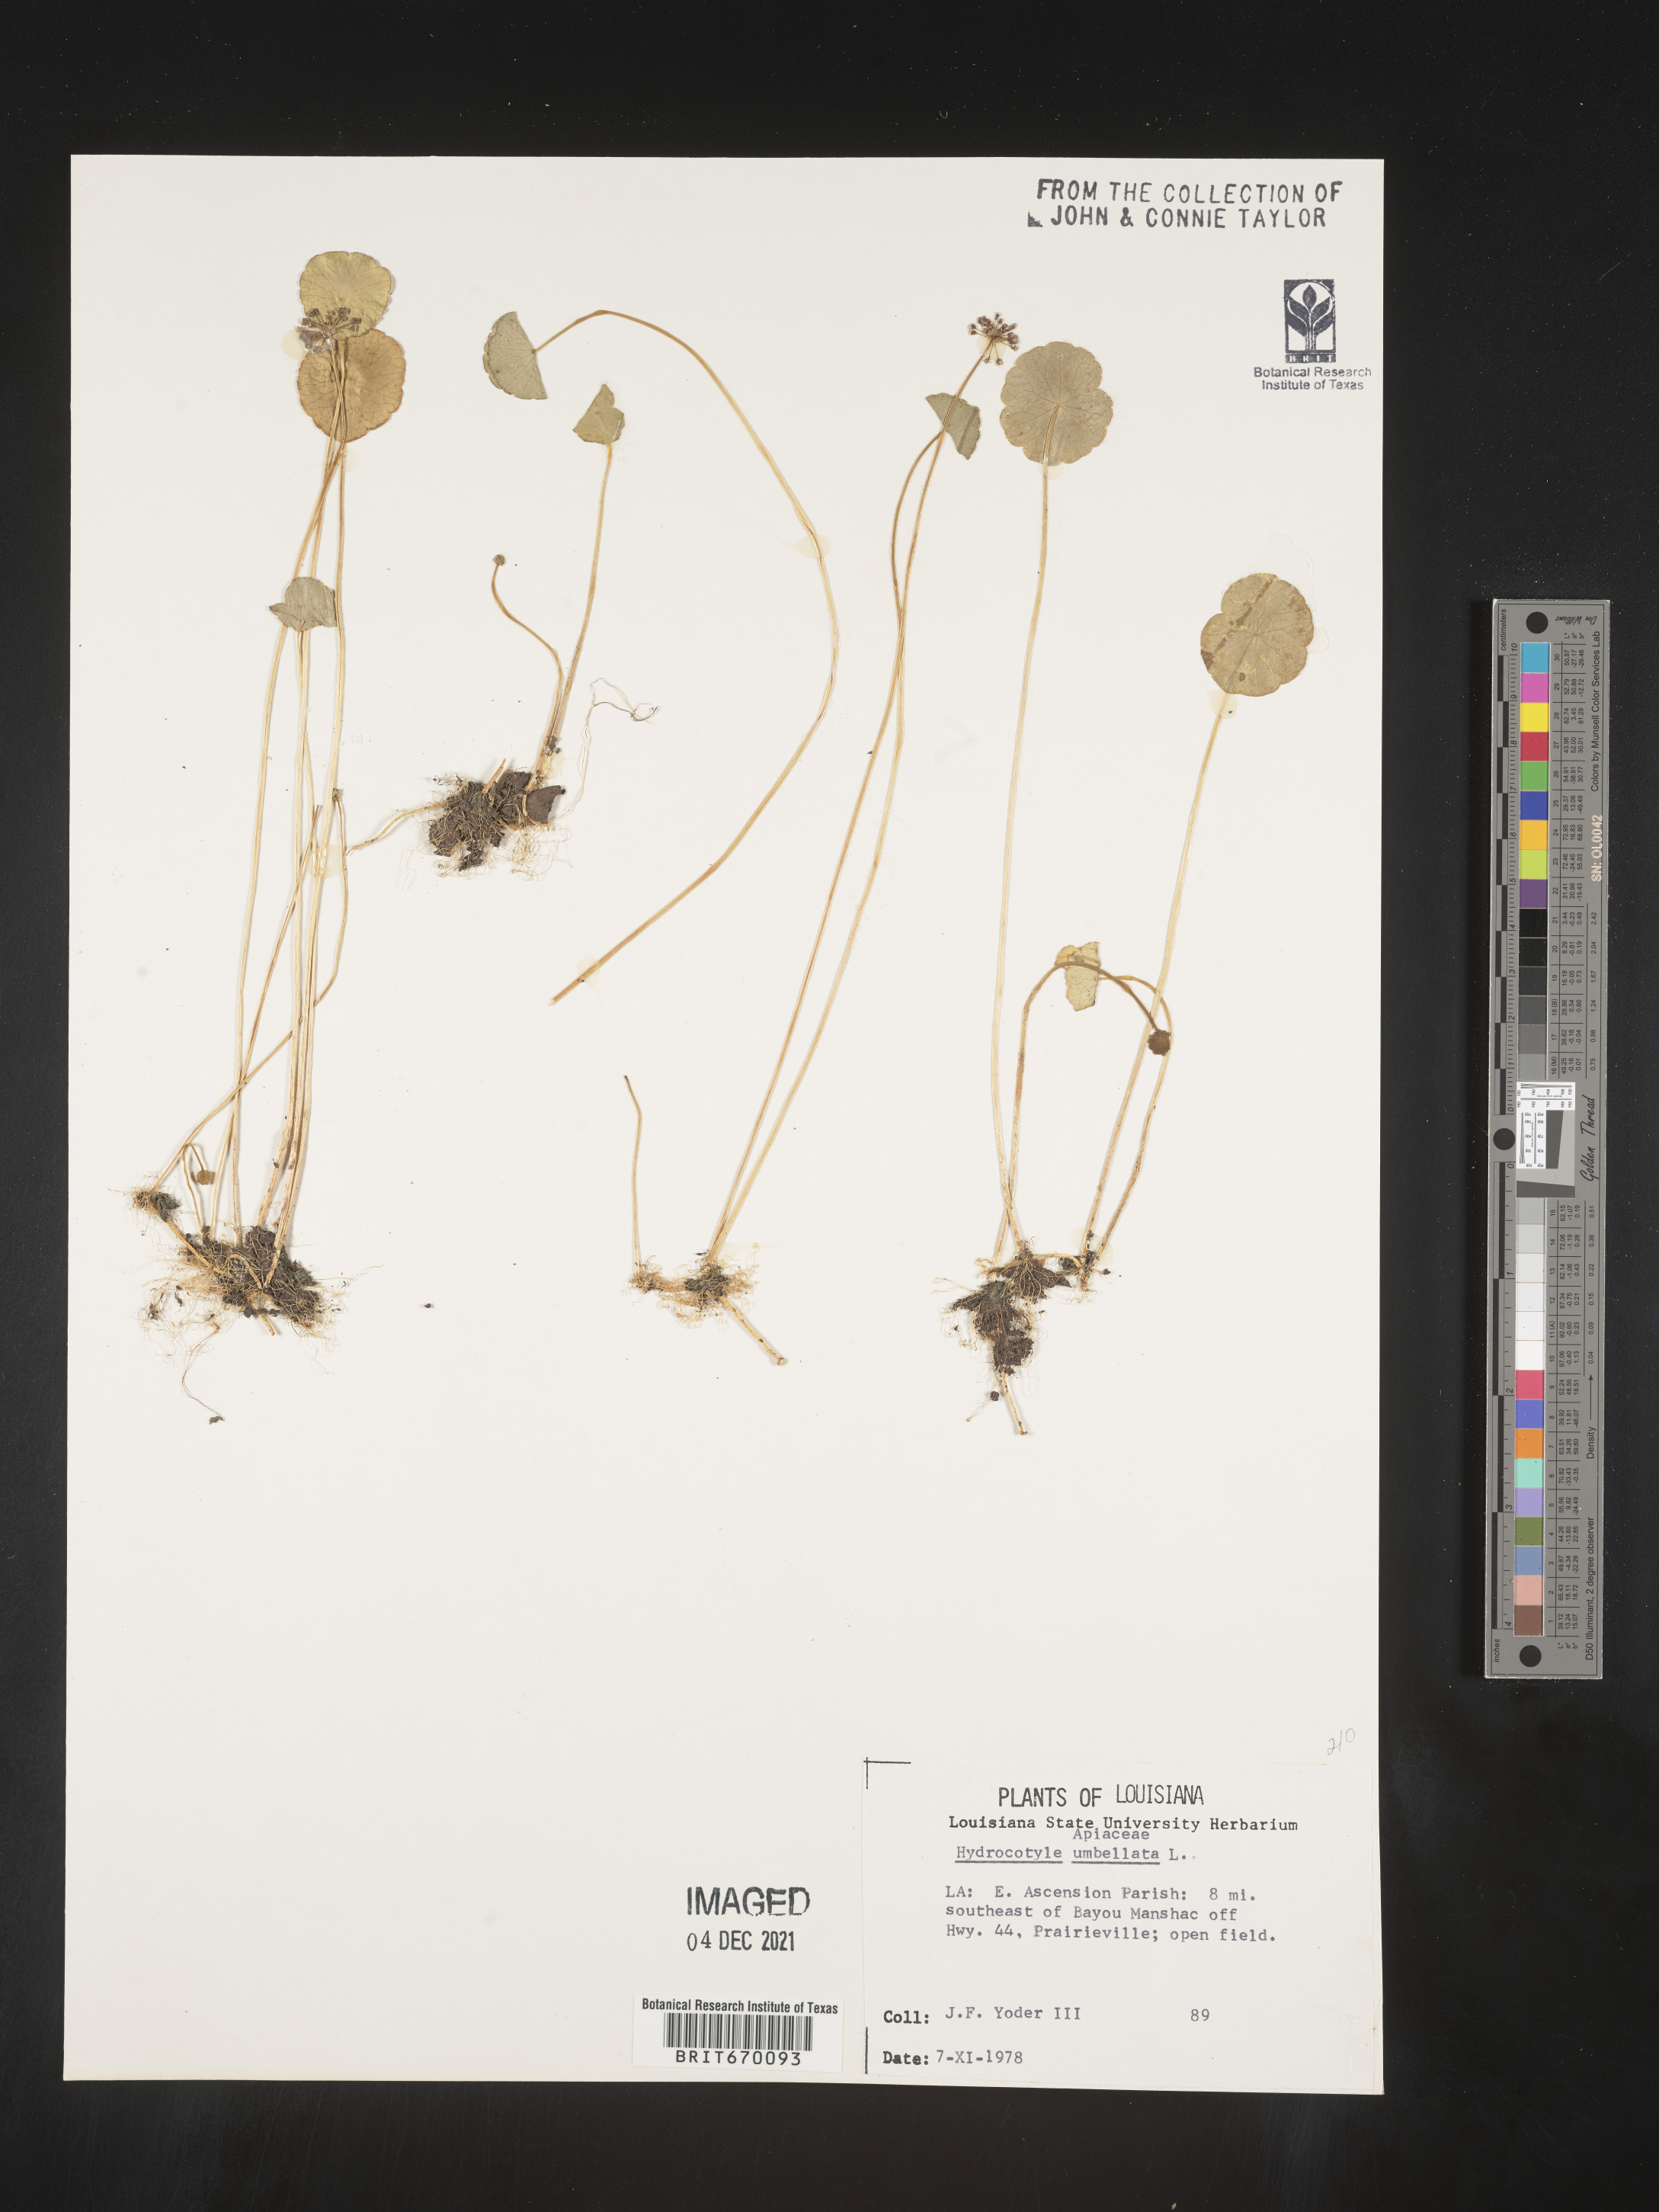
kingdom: Plantae
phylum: Tracheophyta
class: Magnoliopsida
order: Apiales
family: Araliaceae
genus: Hydrocotyle
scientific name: Hydrocotyle umbellata
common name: Water pennywort
